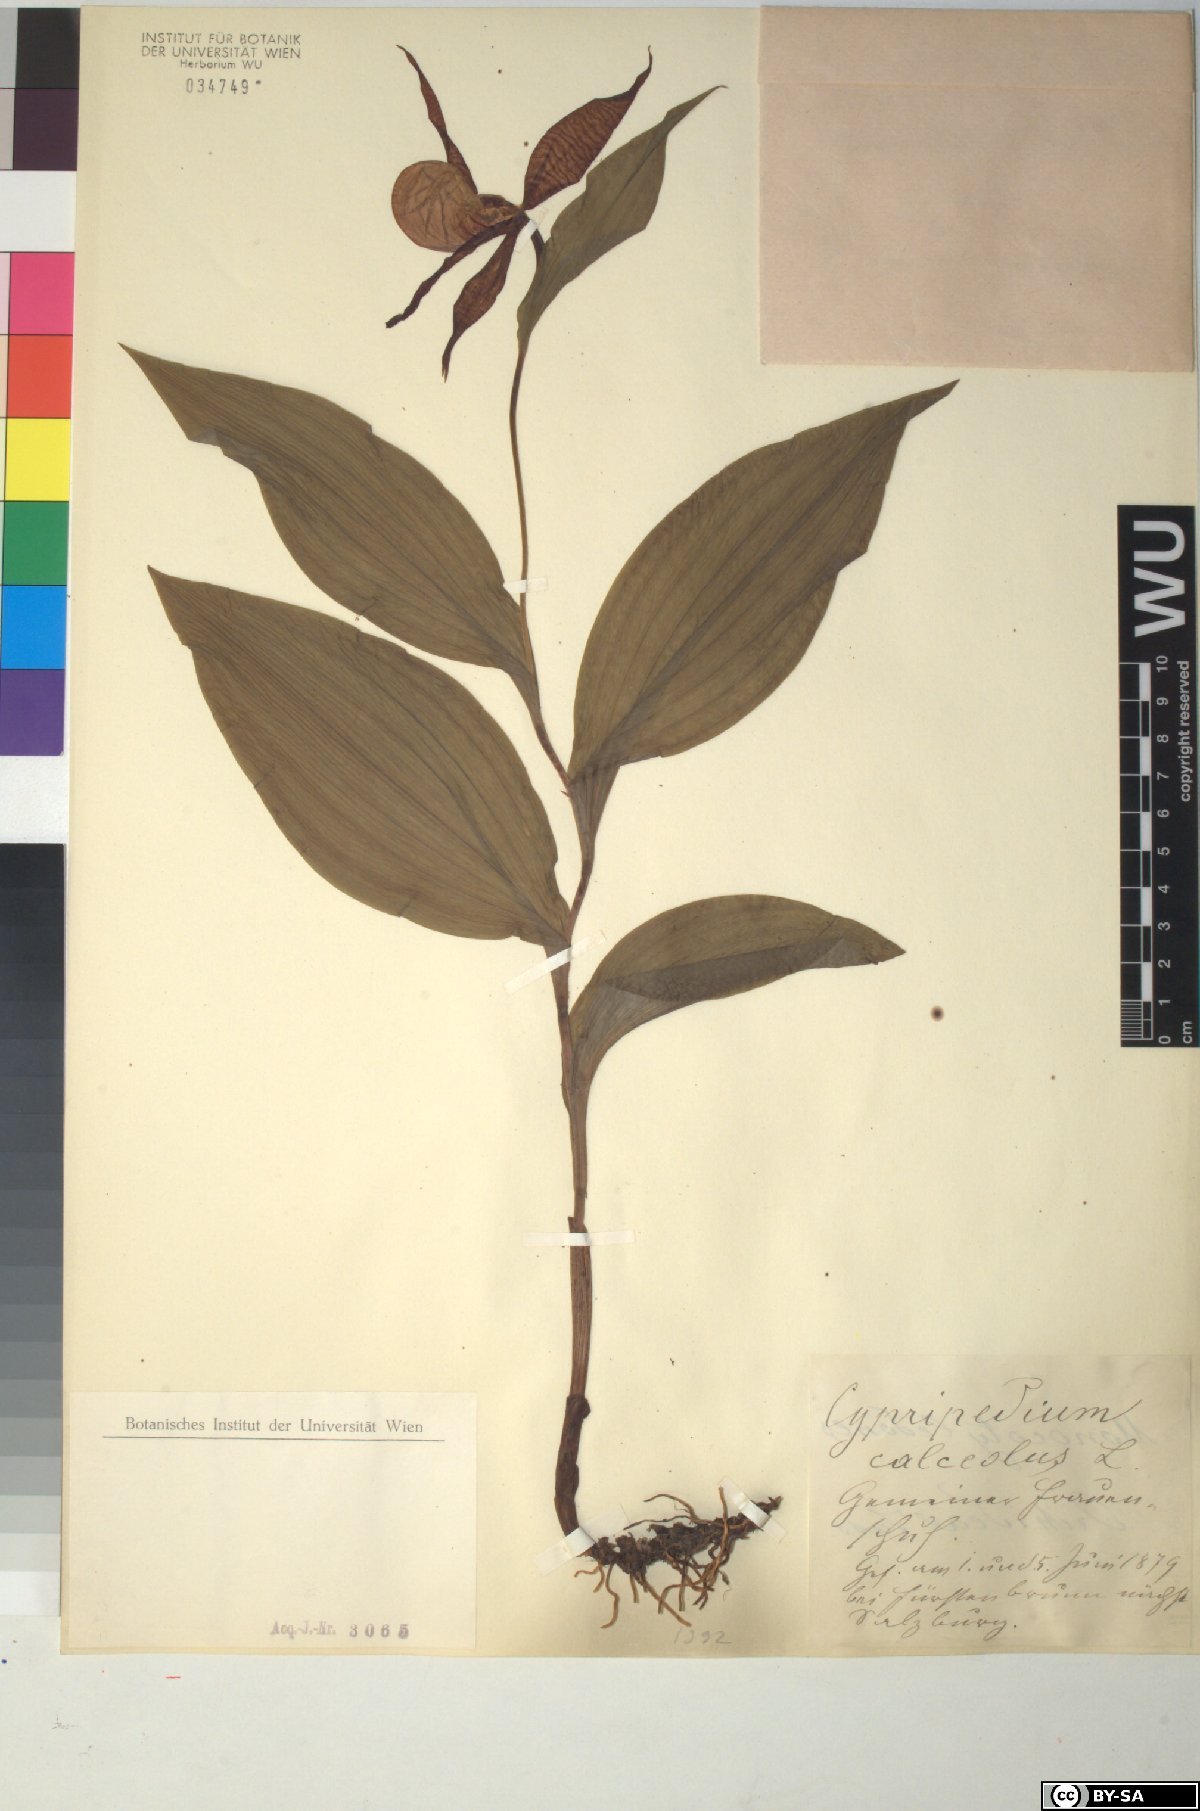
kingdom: Plantae
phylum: Tracheophyta
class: Liliopsida
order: Asparagales
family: Orchidaceae
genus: Cypripedium
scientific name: Cypripedium calceolus
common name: Lady's-slipper
